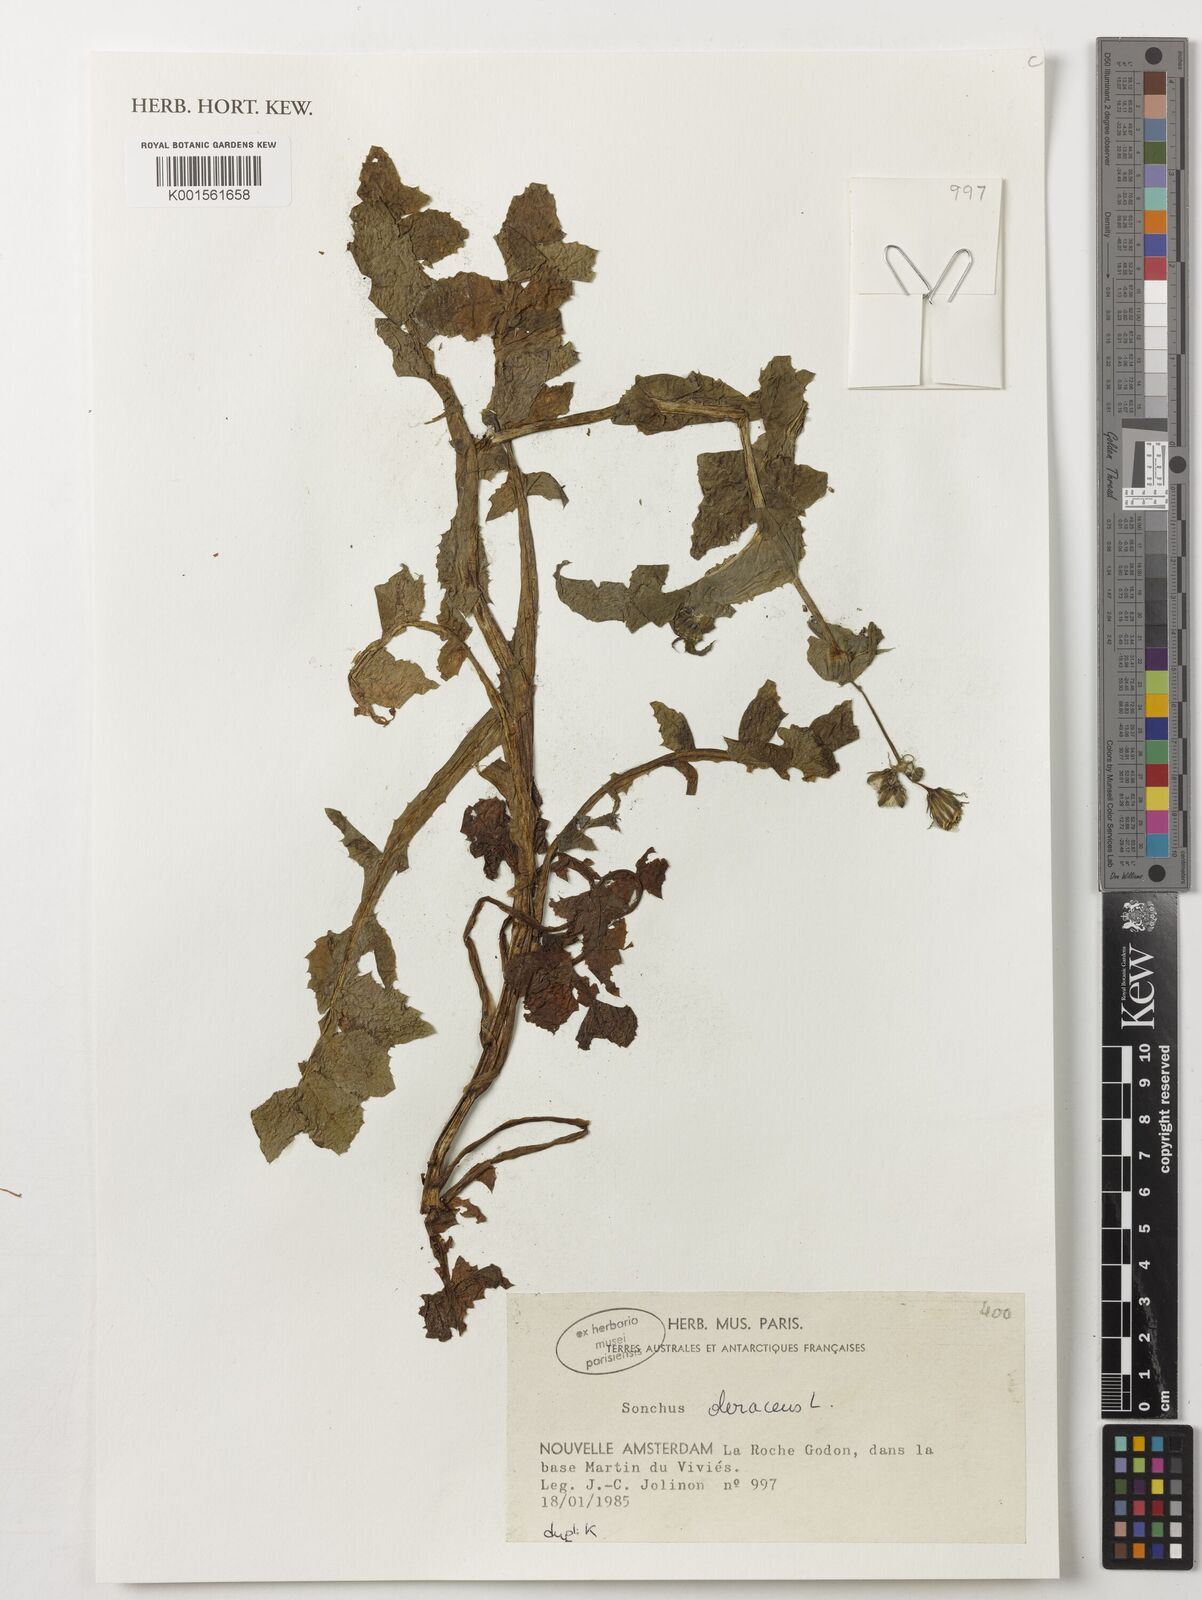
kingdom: Plantae
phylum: Tracheophyta
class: Magnoliopsida
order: Asterales
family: Asteraceae
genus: Sonchus
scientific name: Sonchus oleraceus
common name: Common sowthistle
